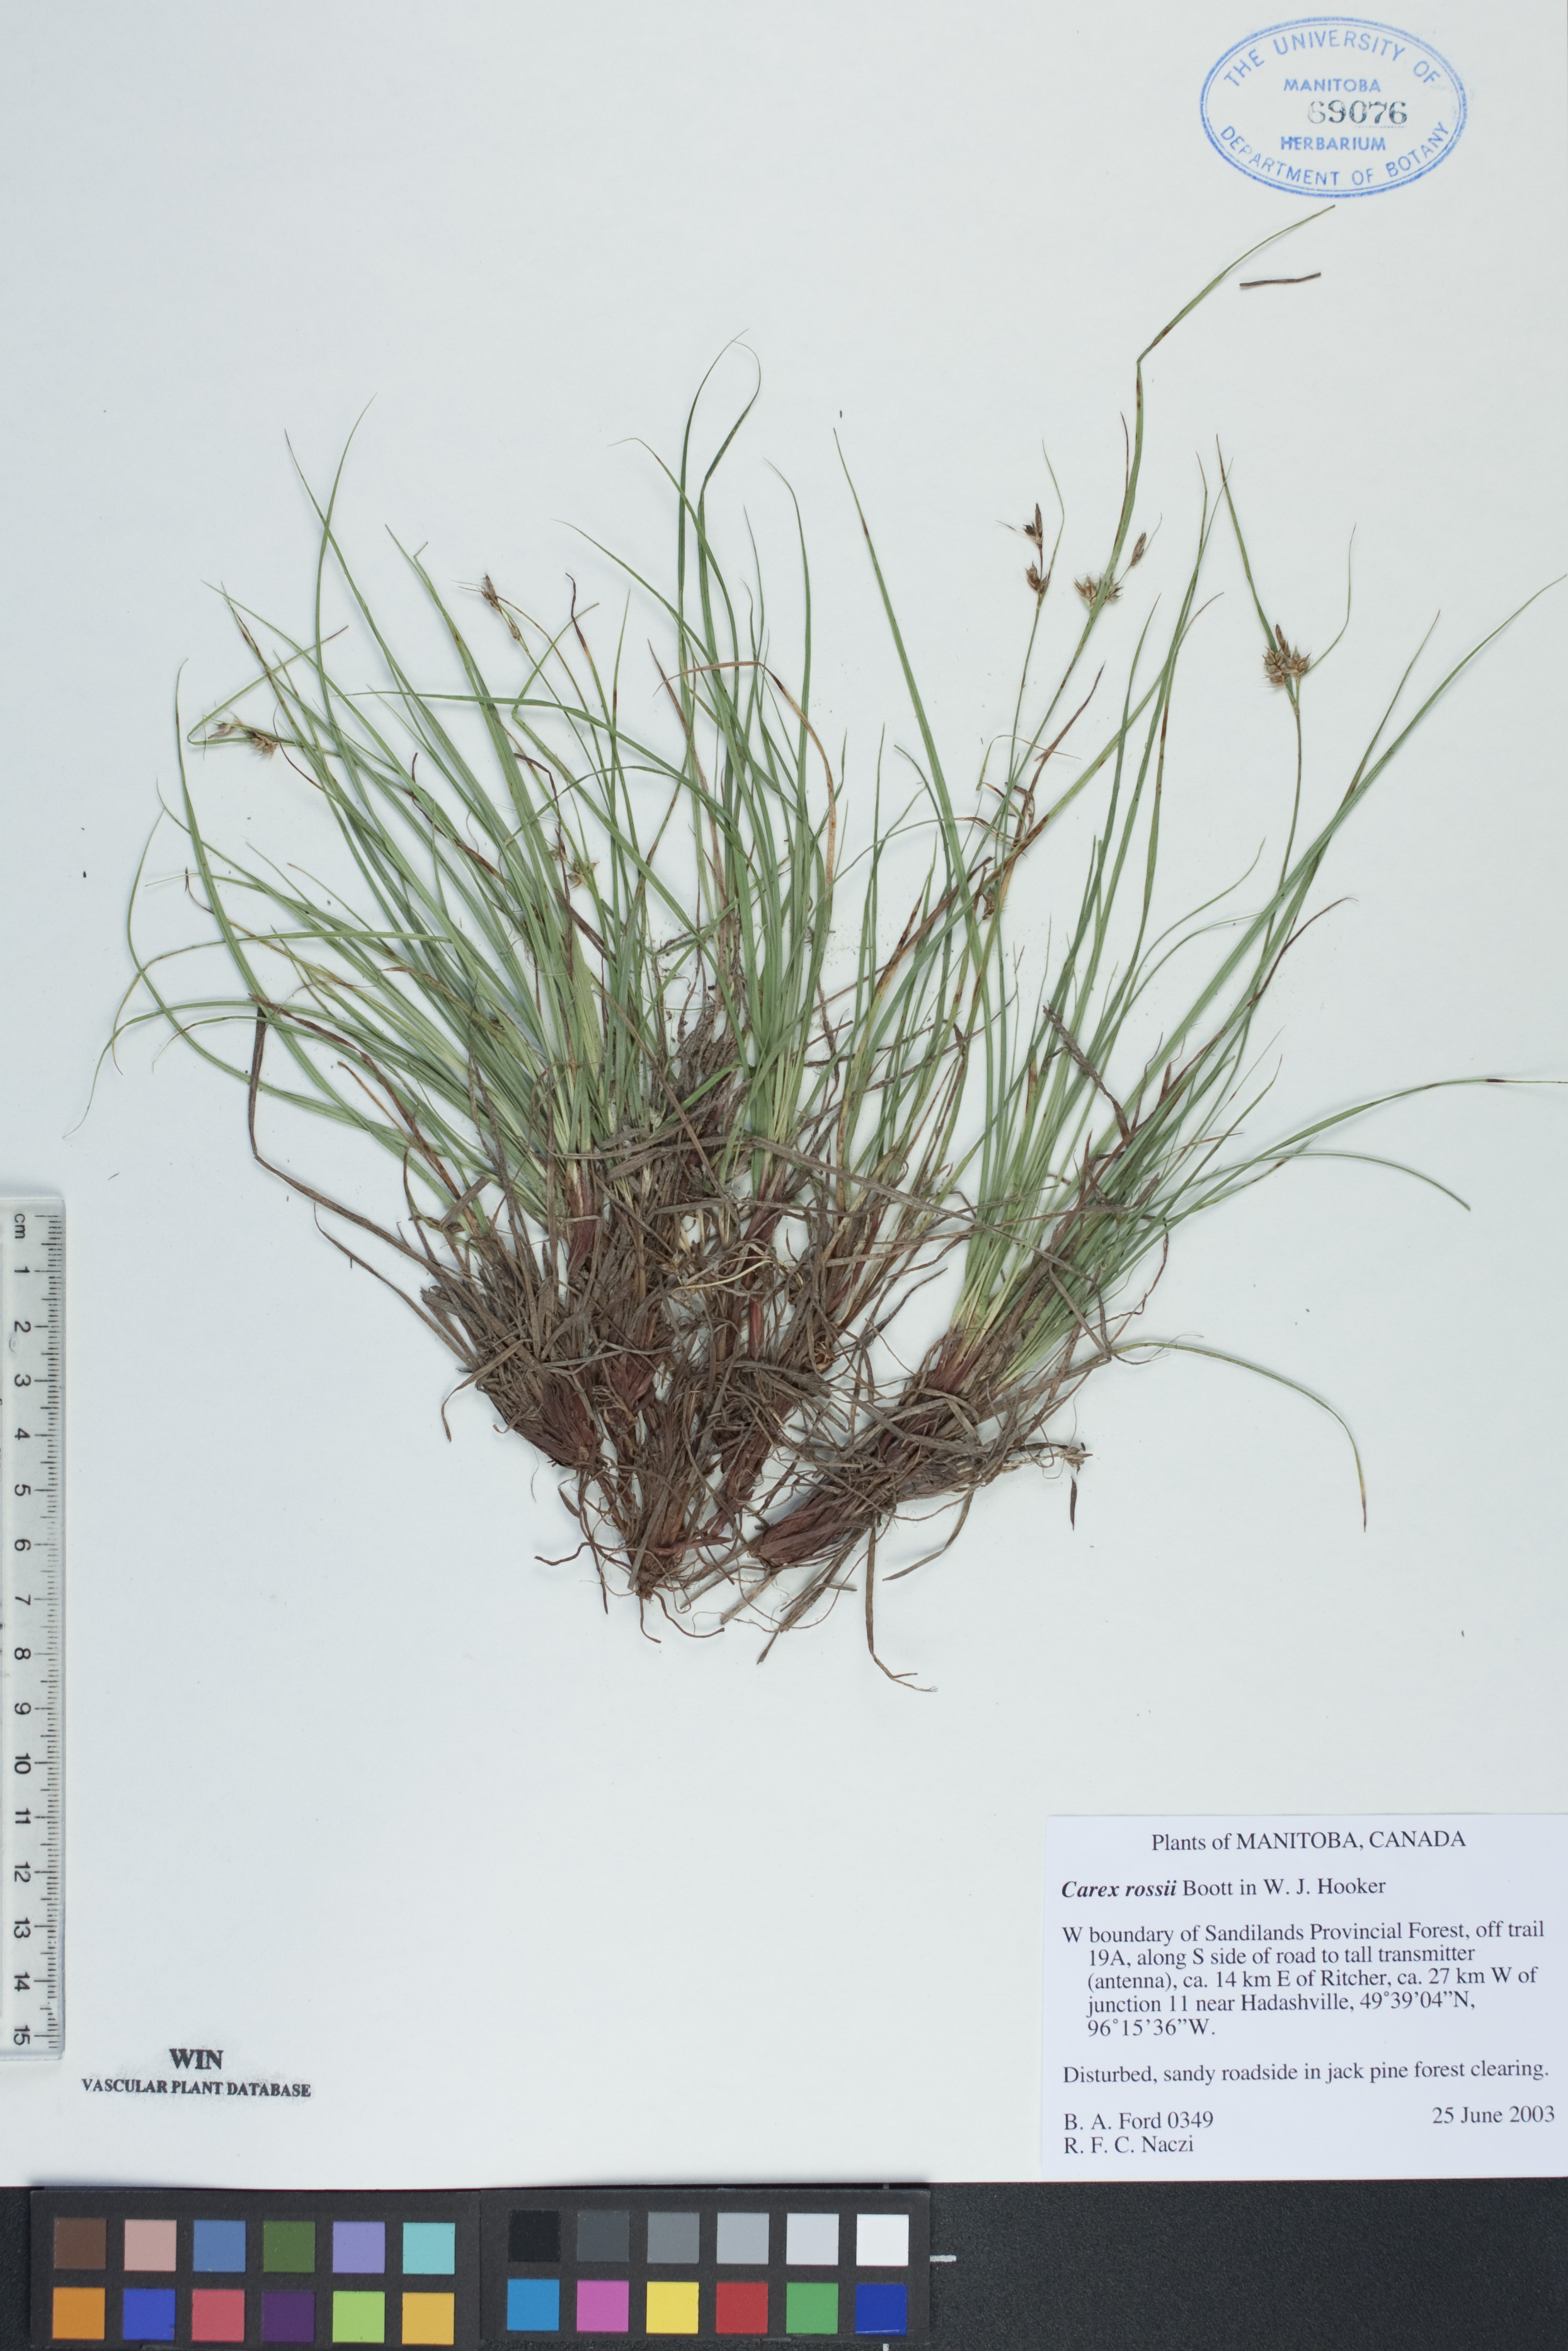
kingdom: Plantae
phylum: Tracheophyta
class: Liliopsida
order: Poales
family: Cyperaceae
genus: Carex
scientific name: Carex rossii
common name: Ross' sedge
